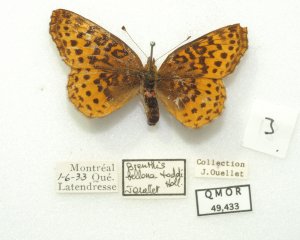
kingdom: Animalia
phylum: Arthropoda
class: Insecta
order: Lepidoptera
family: Nymphalidae
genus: Clossiana
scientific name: Clossiana toddi
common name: Meadow Fritillary
